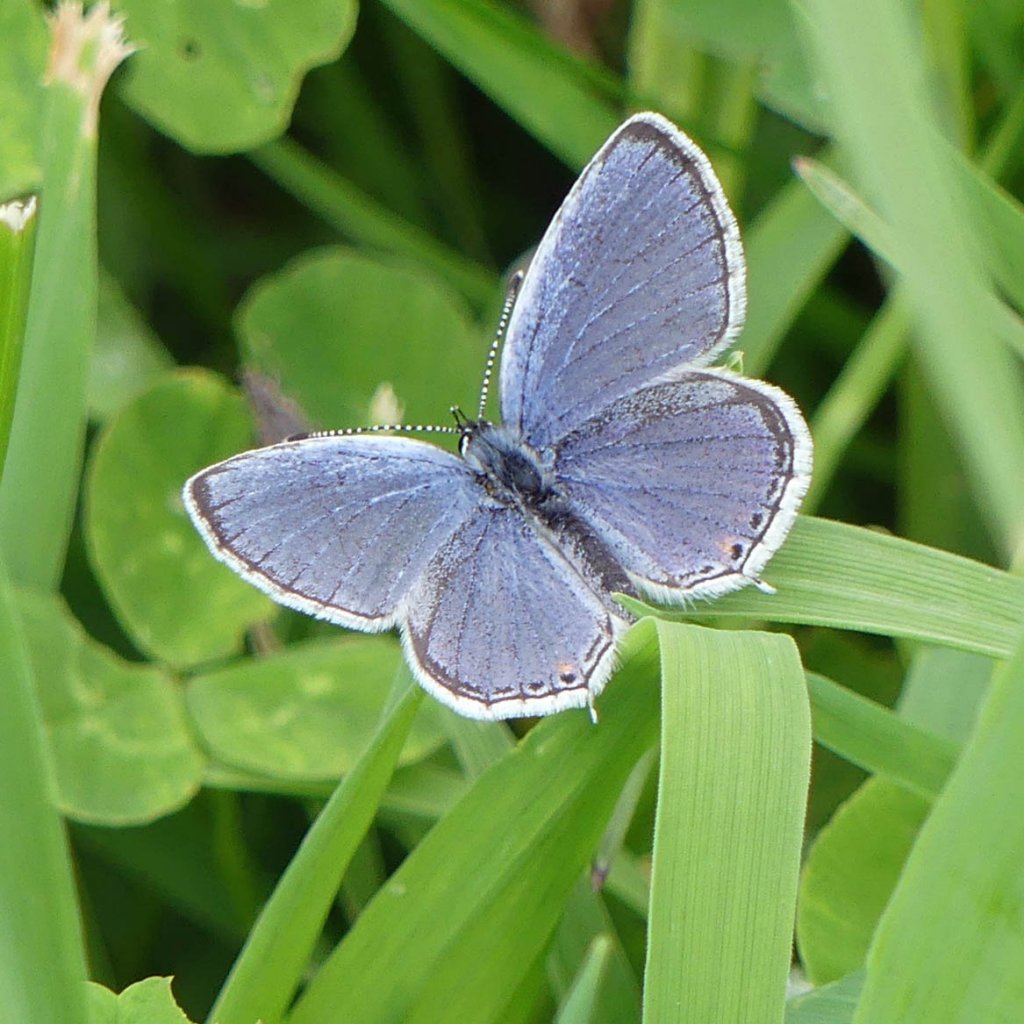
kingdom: Animalia
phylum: Arthropoda
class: Insecta
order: Lepidoptera
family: Lycaenidae
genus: Elkalyce
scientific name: Elkalyce comyntas
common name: Eastern Tailed-Blue
